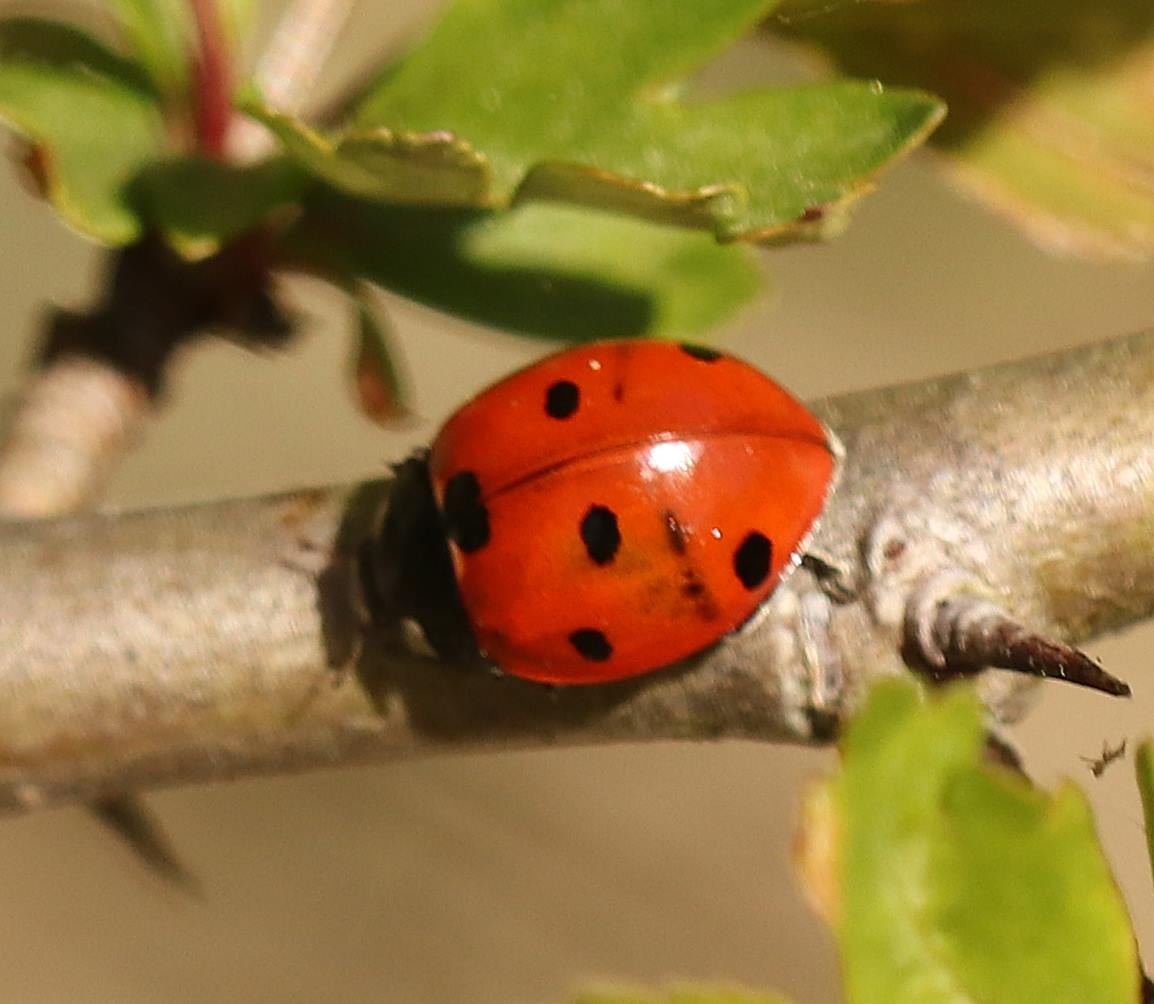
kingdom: Animalia
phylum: Arthropoda
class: Insecta
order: Coleoptera
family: Coccinellidae
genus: Coccinella
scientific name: Coccinella septempunctata
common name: Syvplettet mariehøne
